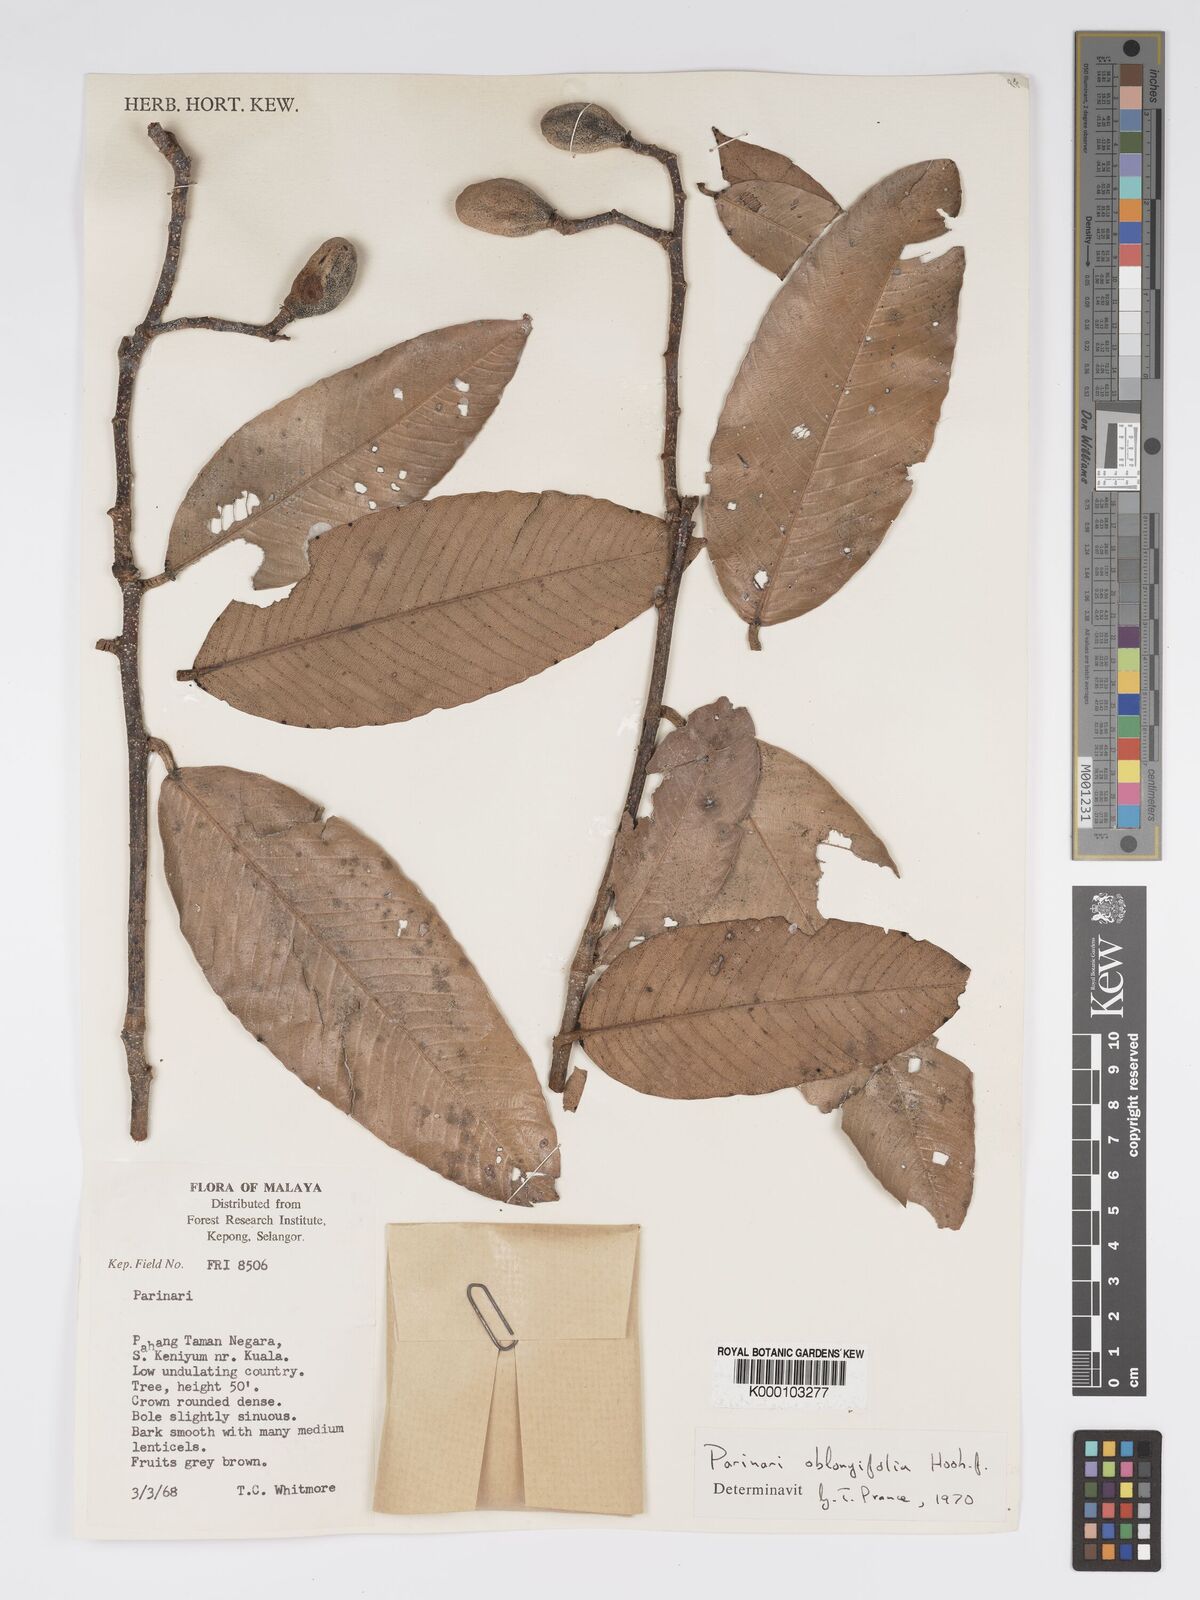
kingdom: Plantae
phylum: Tracheophyta
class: Magnoliopsida
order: Malpighiales
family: Chrysobalanaceae
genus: Parinari
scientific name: Parinari oblongifolia
